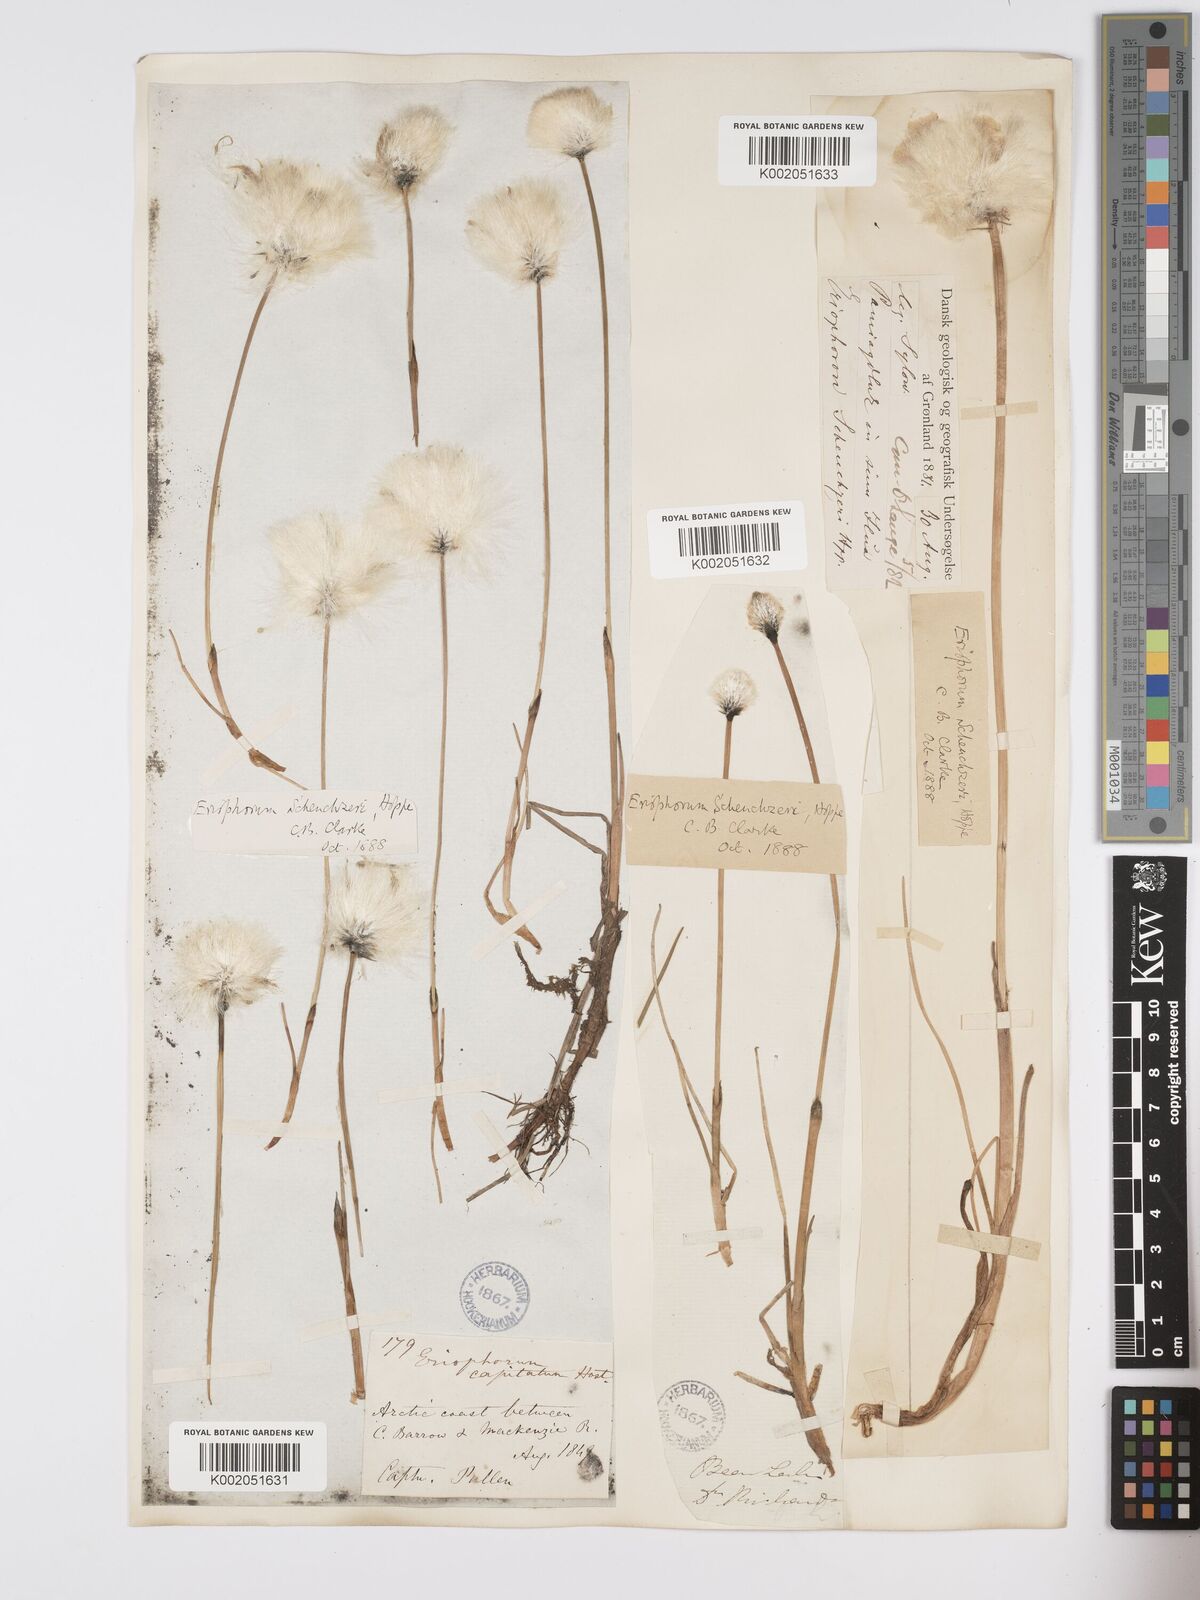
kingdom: Plantae
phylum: Tracheophyta
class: Liliopsida
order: Poales
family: Cyperaceae
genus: Eriophorum
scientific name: Eriophorum scheuchzeri
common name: Scheuchzer's cottongrass
